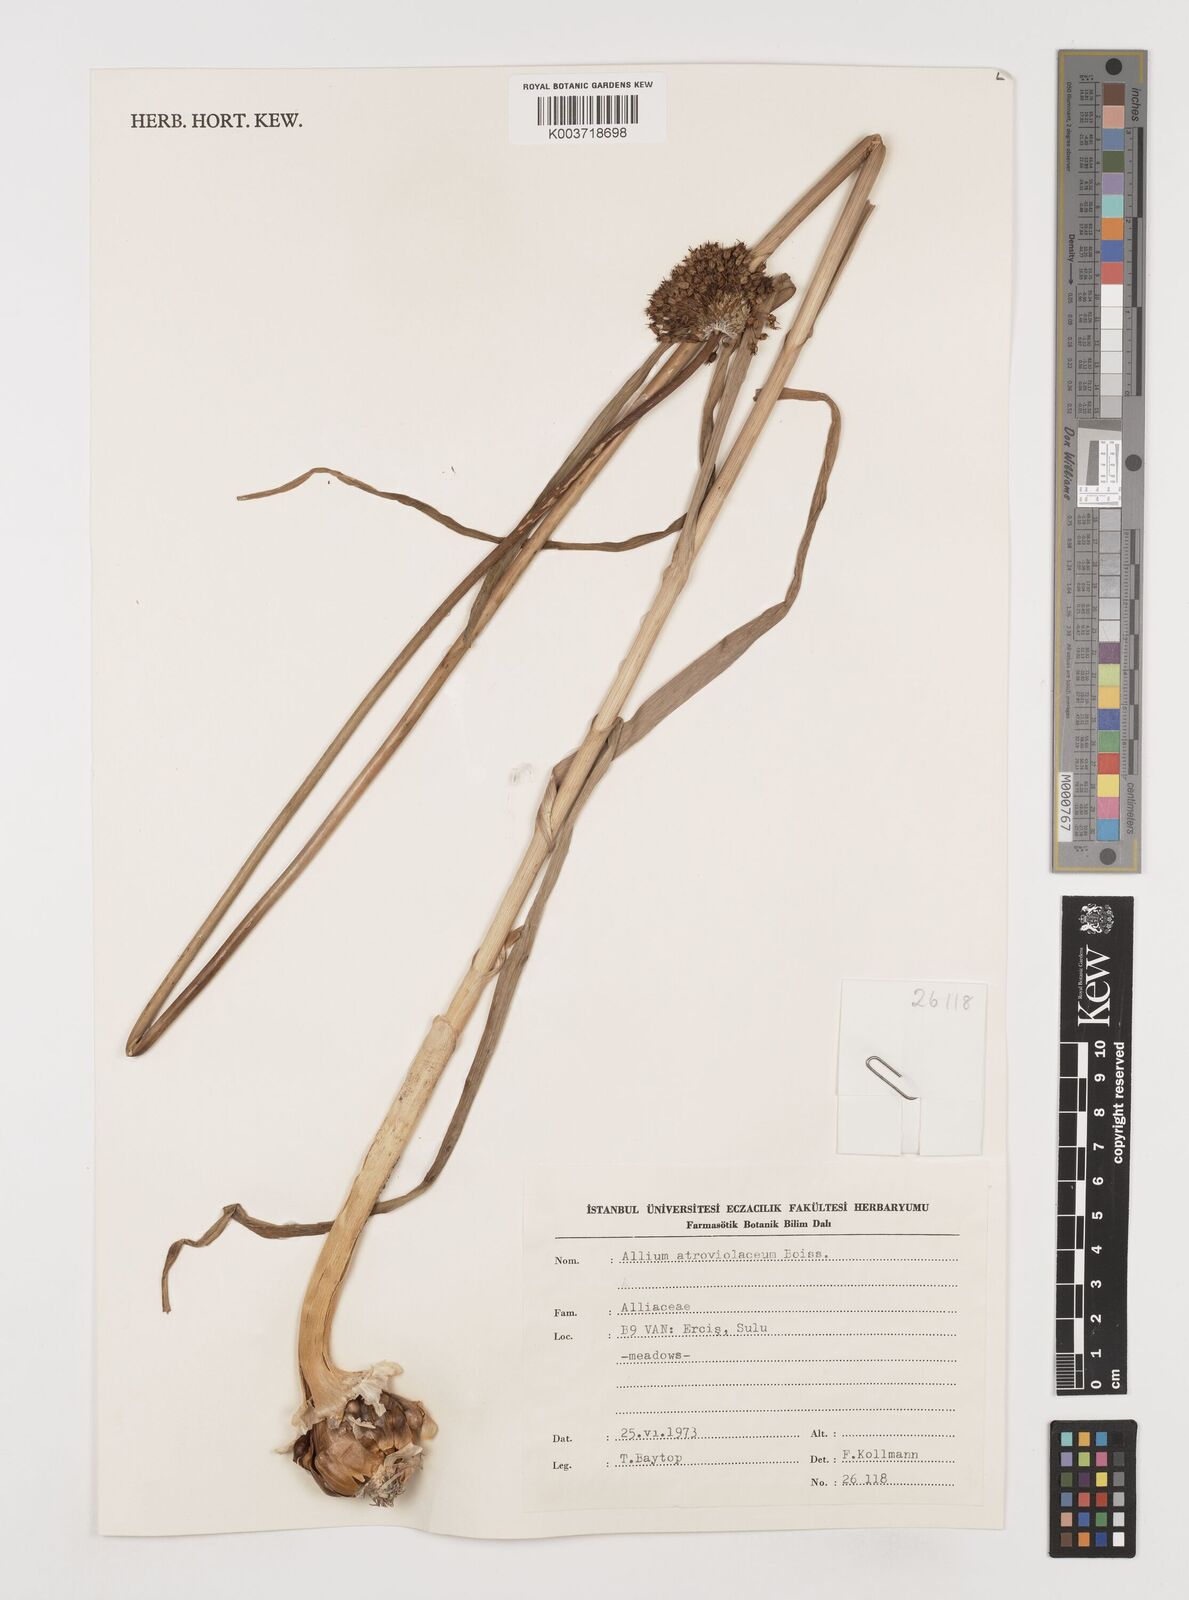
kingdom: Plantae
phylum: Tracheophyta
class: Liliopsida
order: Asparagales
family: Amaryllidaceae
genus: Allium
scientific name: Allium atroviolaceum
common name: Broadleaf wild leek
